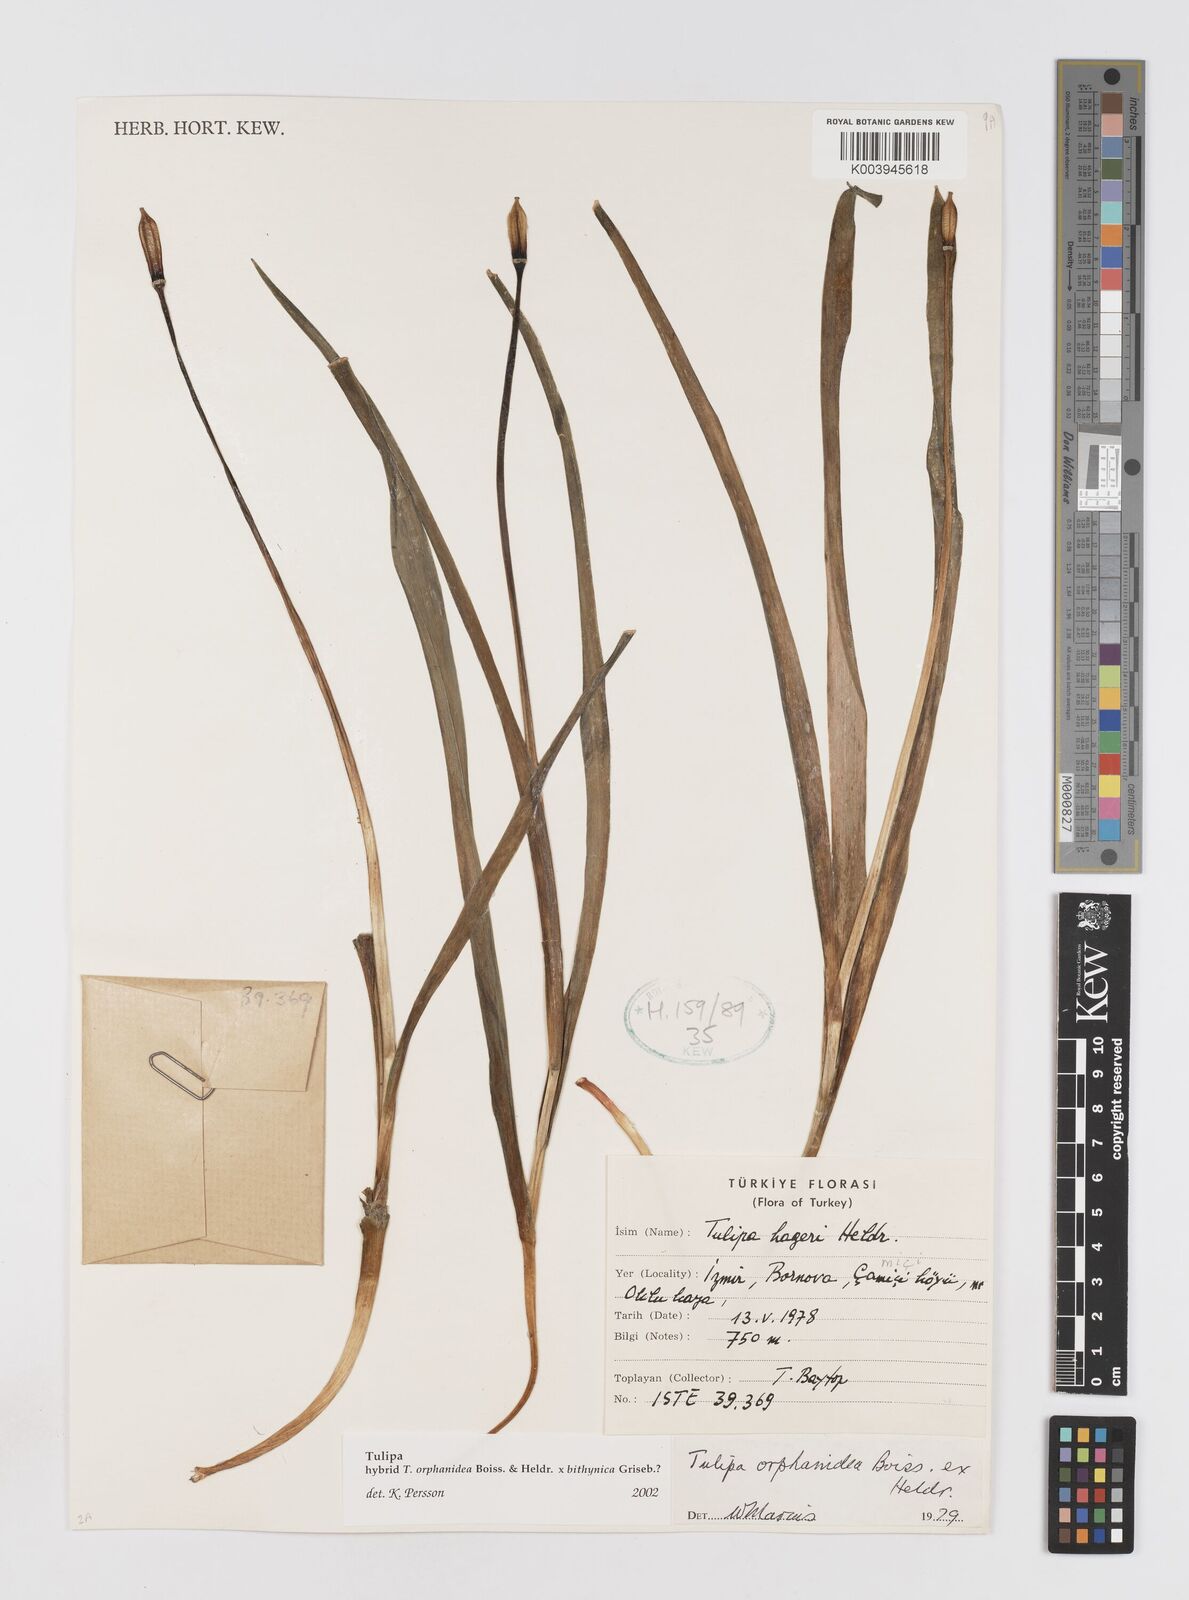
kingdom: Plantae
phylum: Tracheophyta
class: Liliopsida
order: Liliales
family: Liliaceae
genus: Tulipa
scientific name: Tulipa orphanidea
